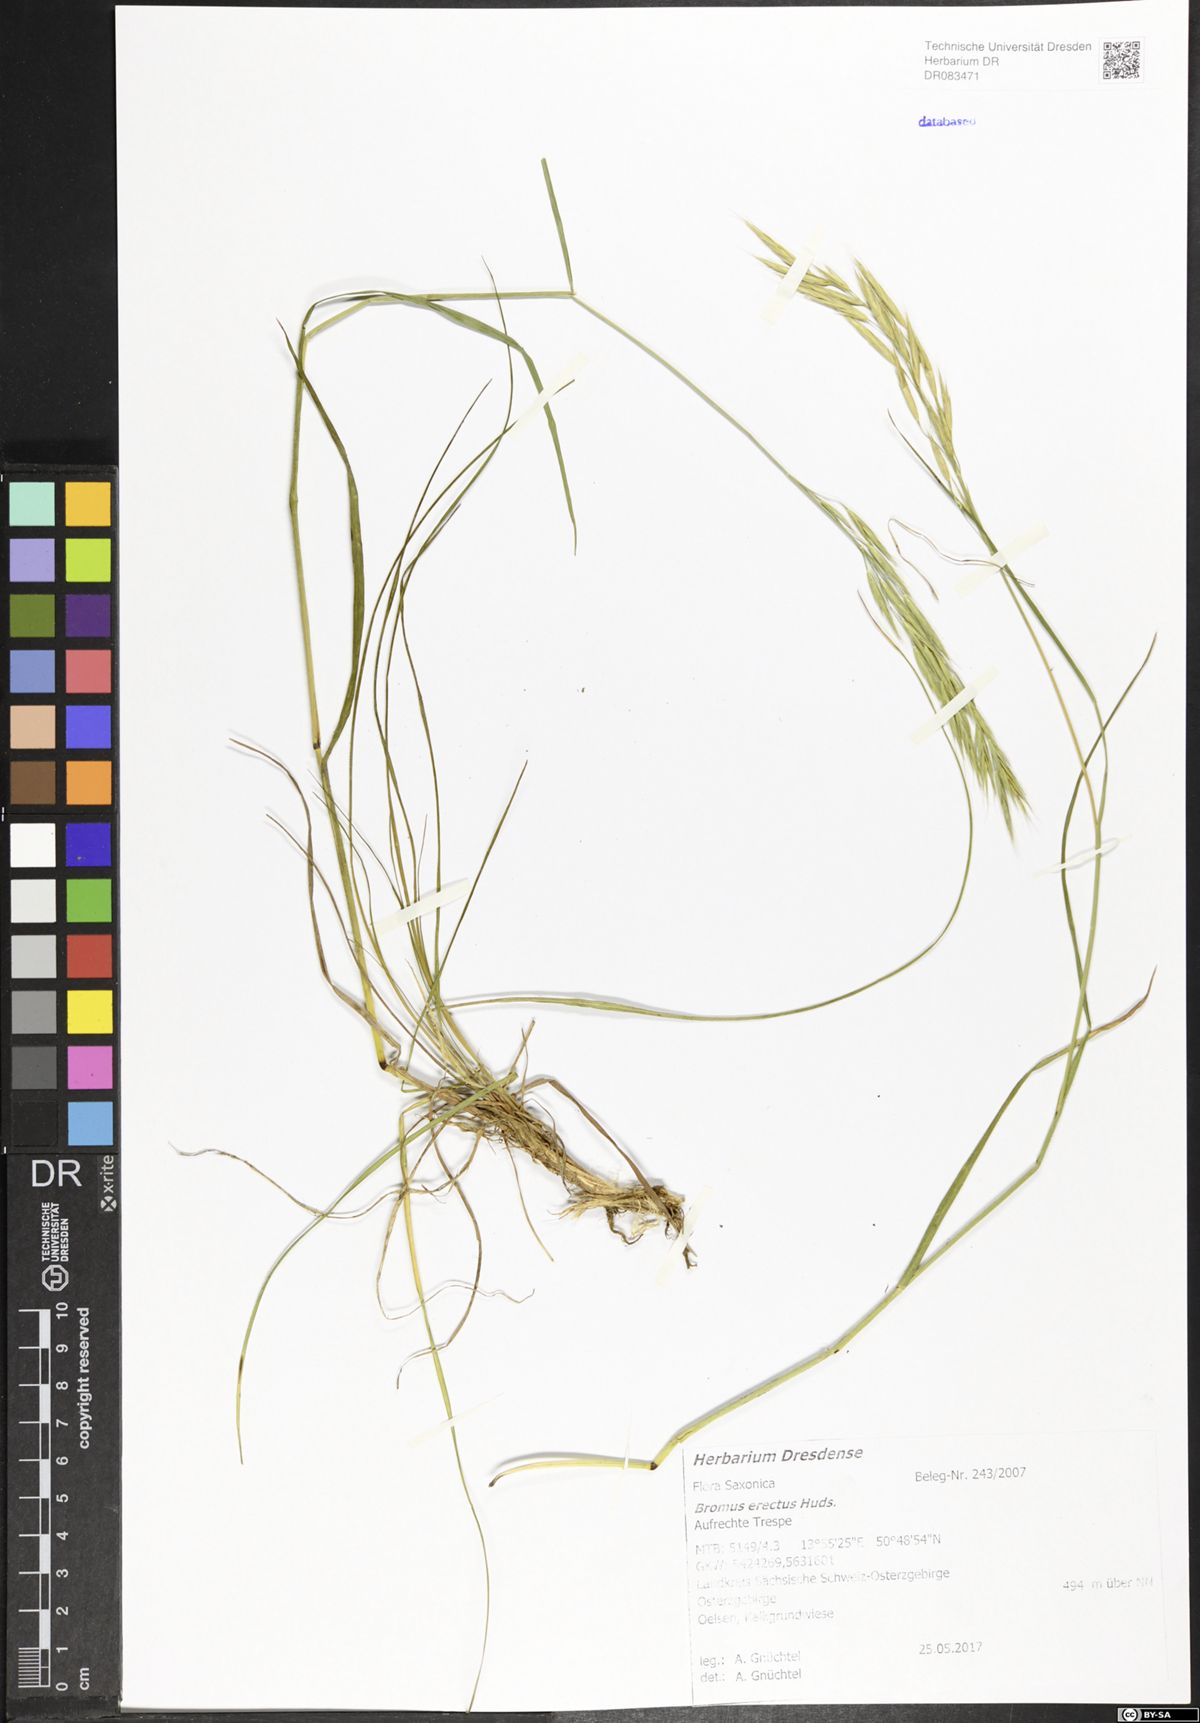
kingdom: Plantae
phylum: Tracheophyta
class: Liliopsida
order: Poales
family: Poaceae
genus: Bromus
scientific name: Bromus erectus
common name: Erect brome
